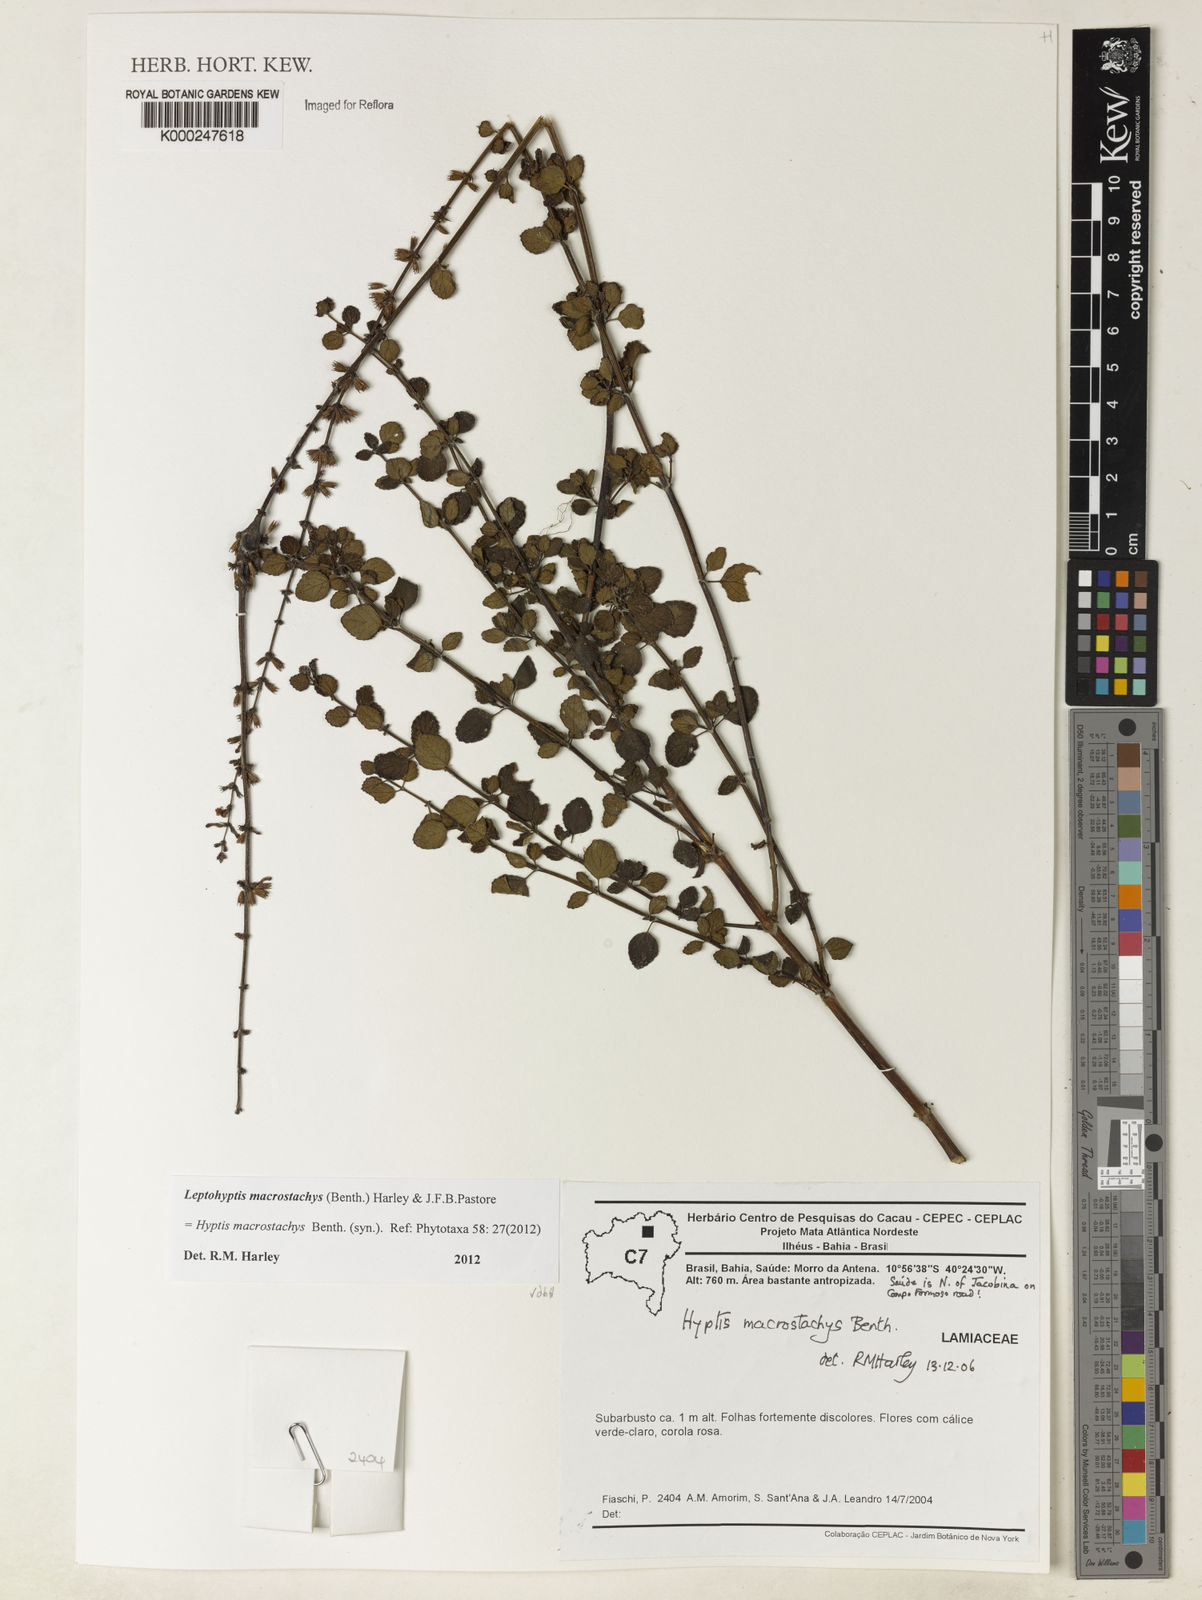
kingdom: Plantae
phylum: Tracheophyta
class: Magnoliopsida
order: Lamiales
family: Lamiaceae
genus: Leptohyptis
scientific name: Leptohyptis macrostachys
